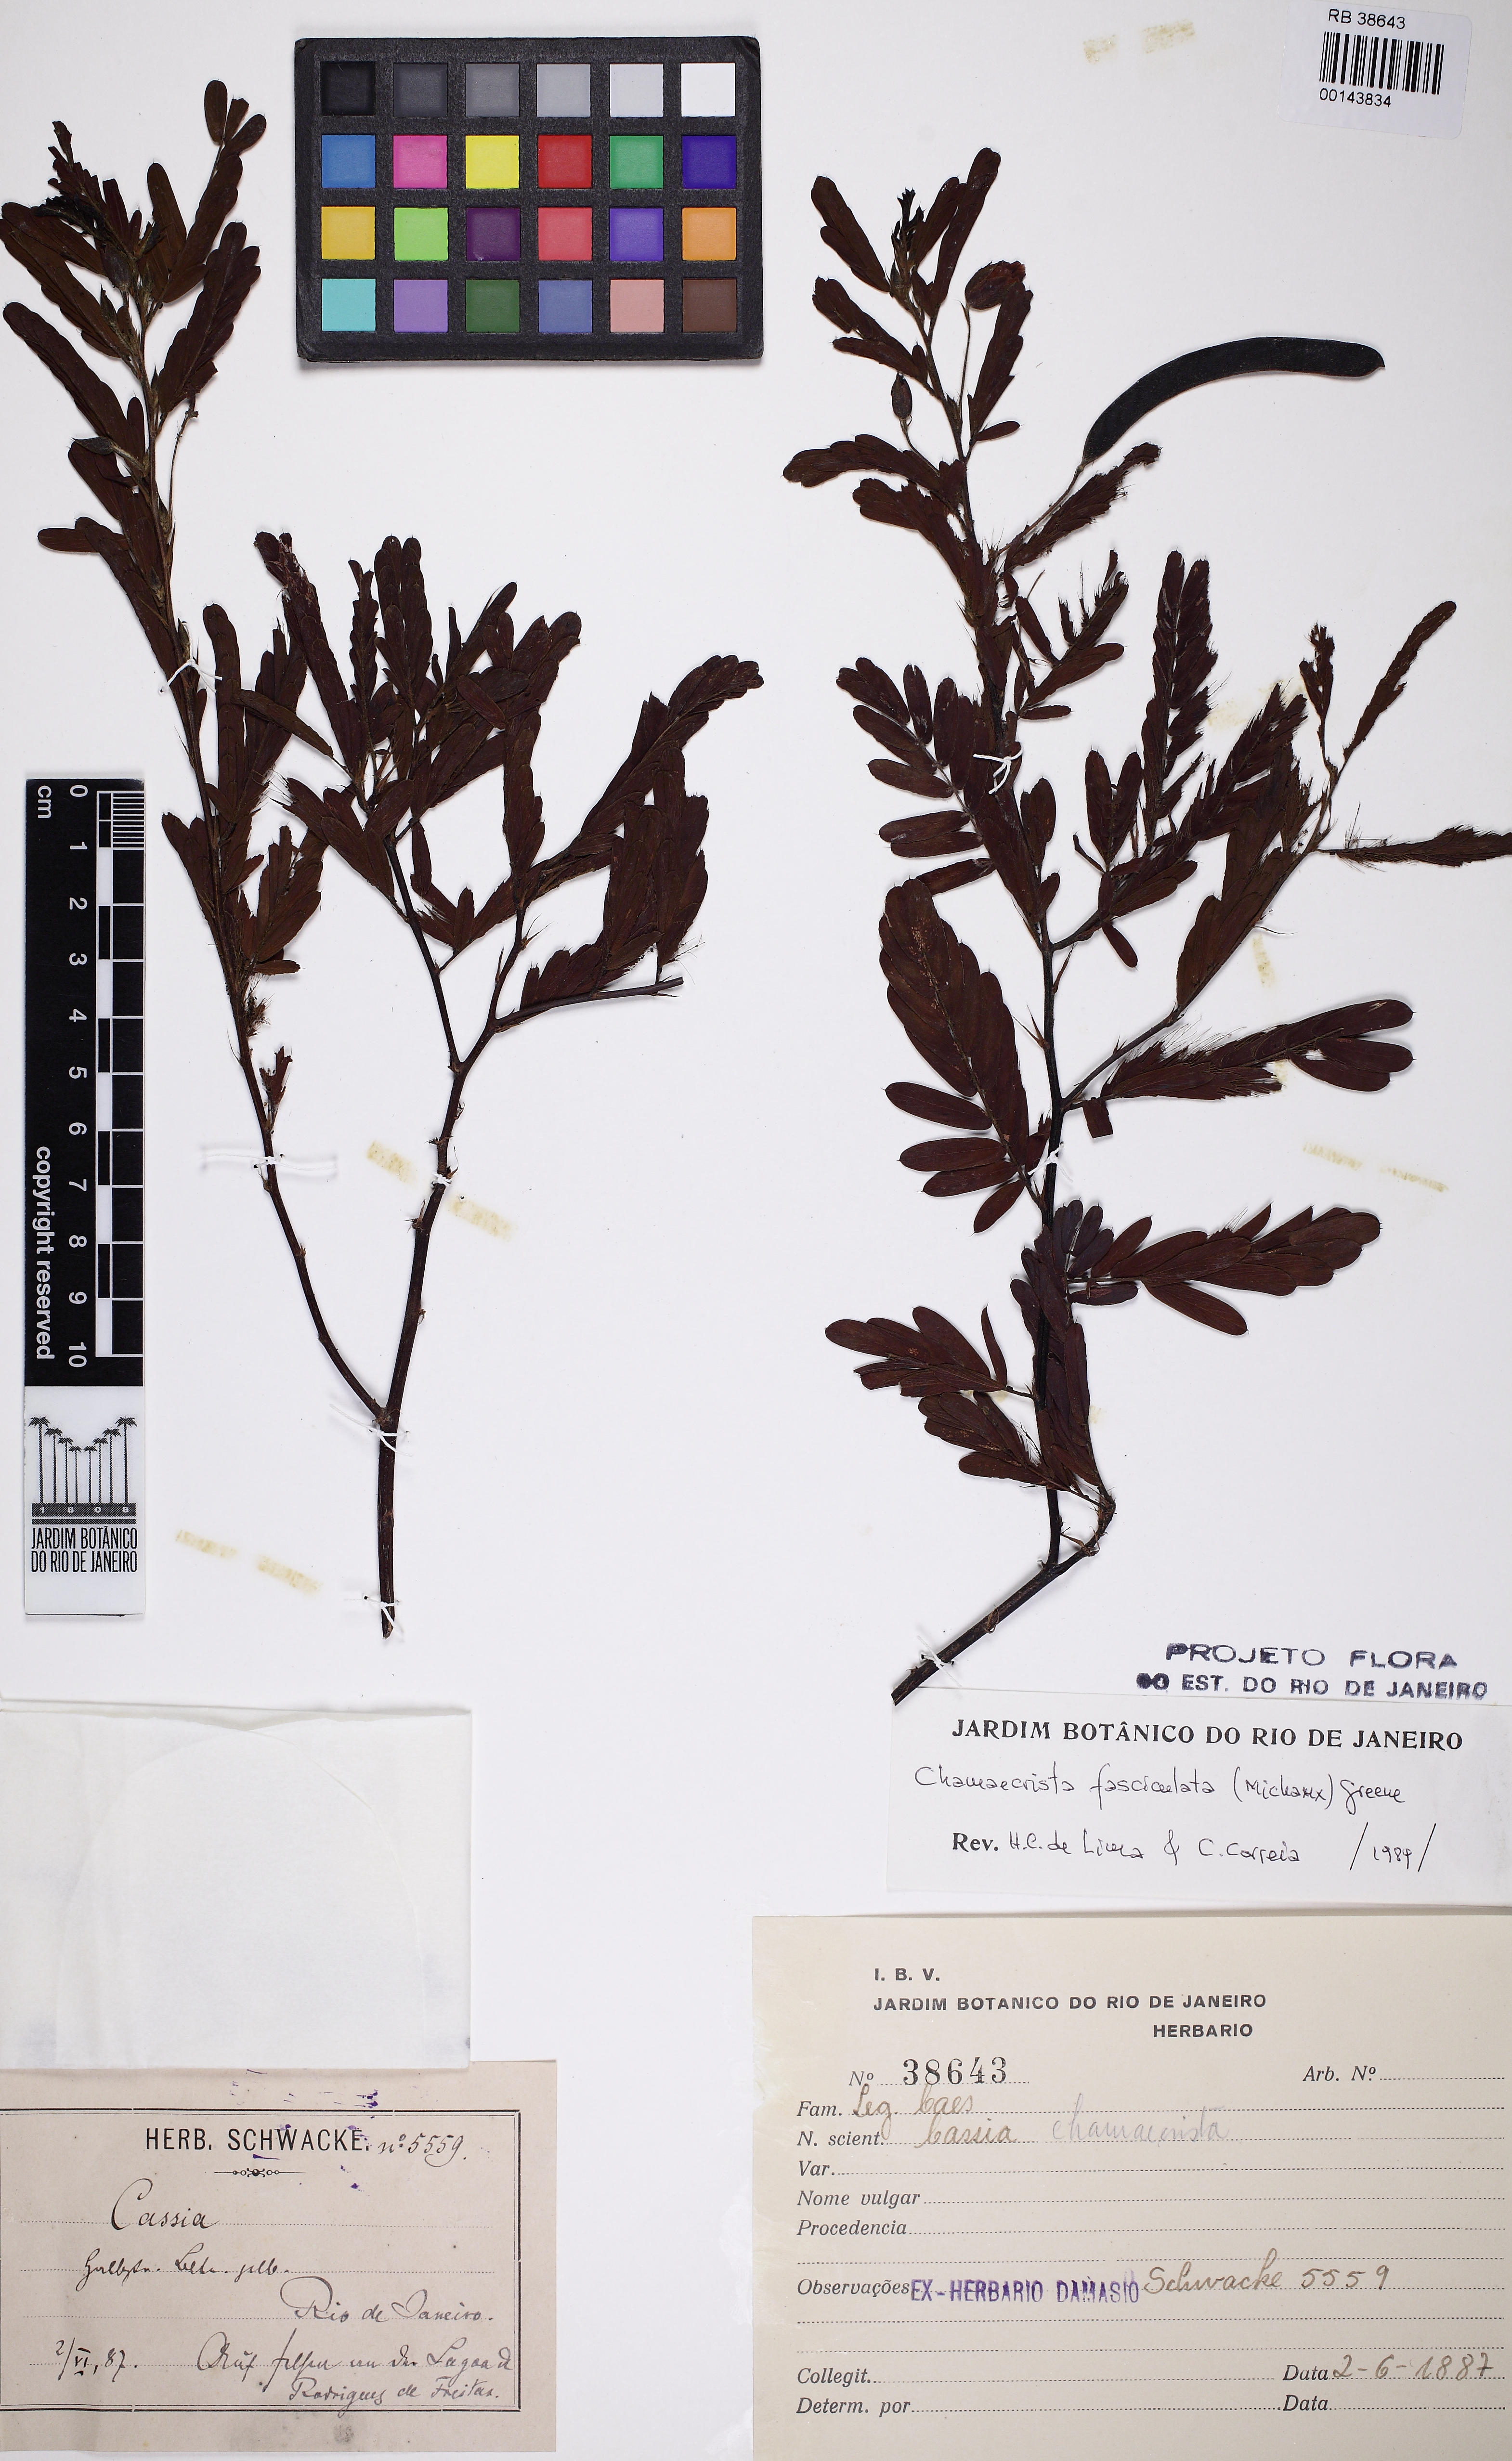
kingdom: Plantae
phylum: Tracheophyta
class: Magnoliopsida
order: Fabales
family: Fabaceae
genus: Chamaecrista
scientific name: Chamaecrista fasciculata
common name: Golden cassia
